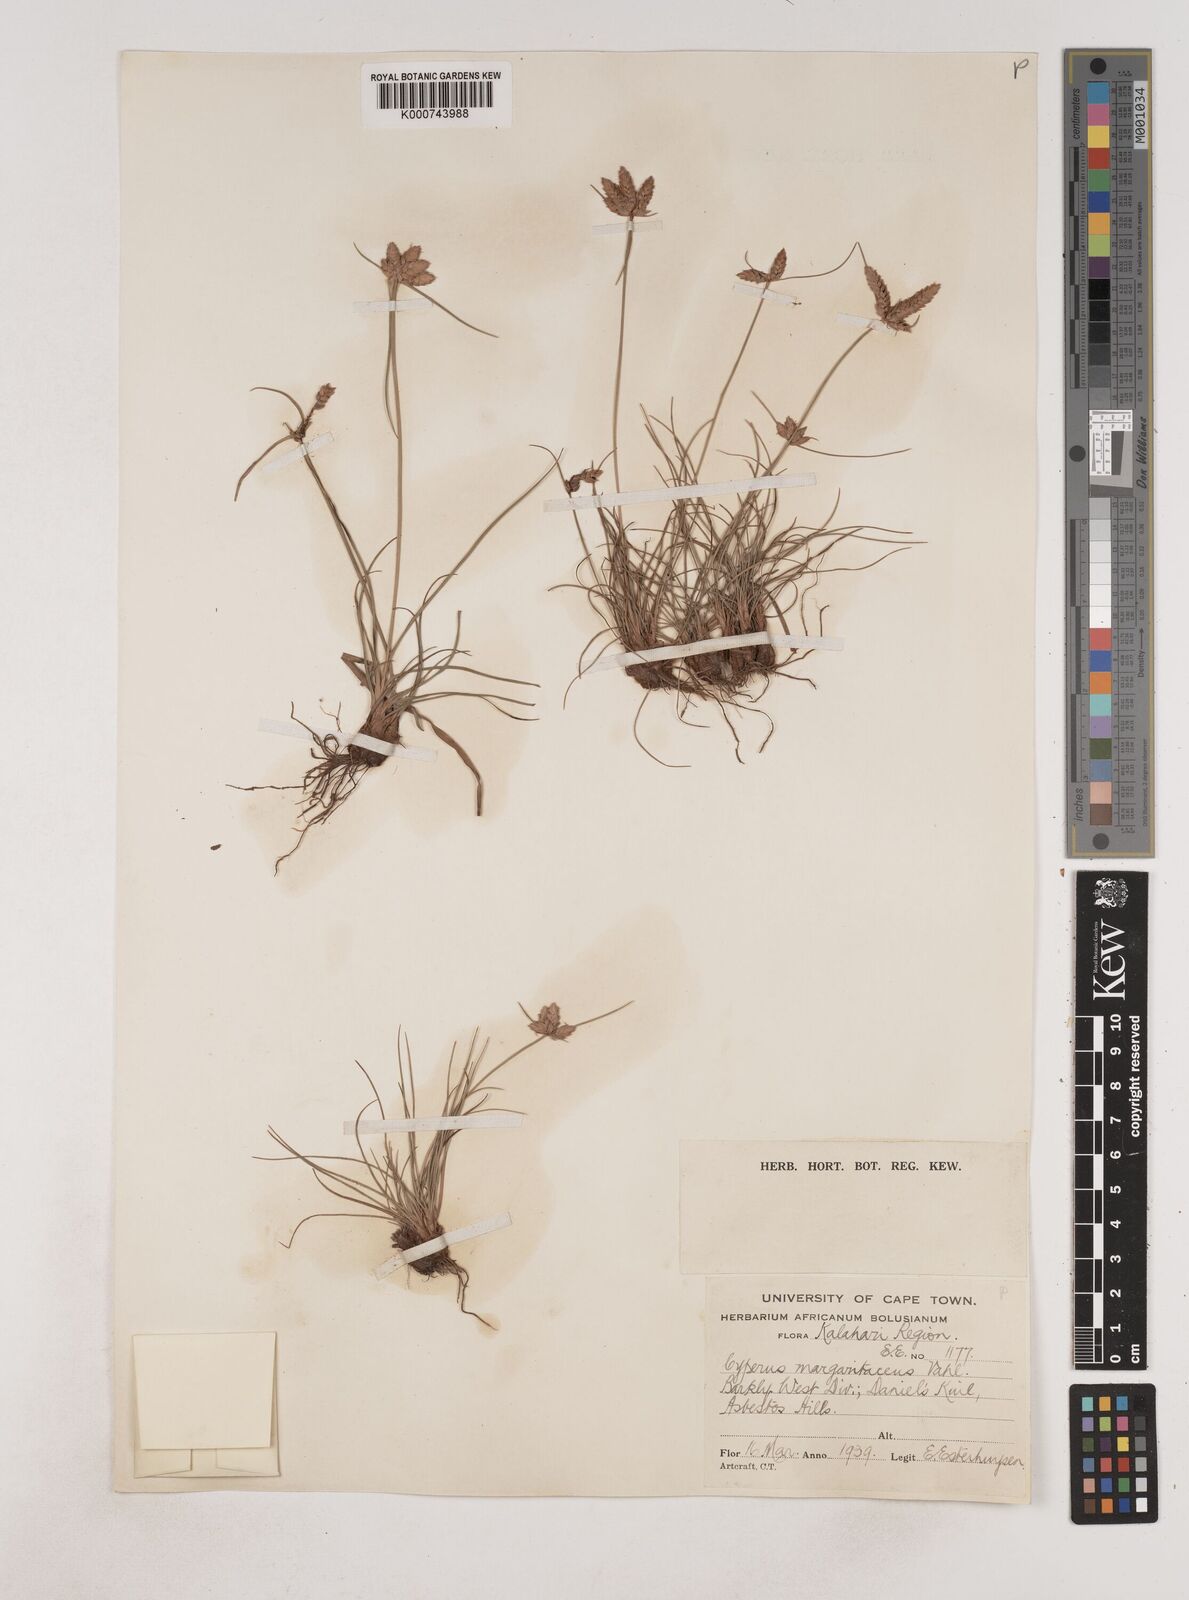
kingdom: Plantae
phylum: Tracheophyta
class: Liliopsida
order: Poales
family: Cyperaceae
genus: Cyperus
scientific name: Cyperus margaritaceus
